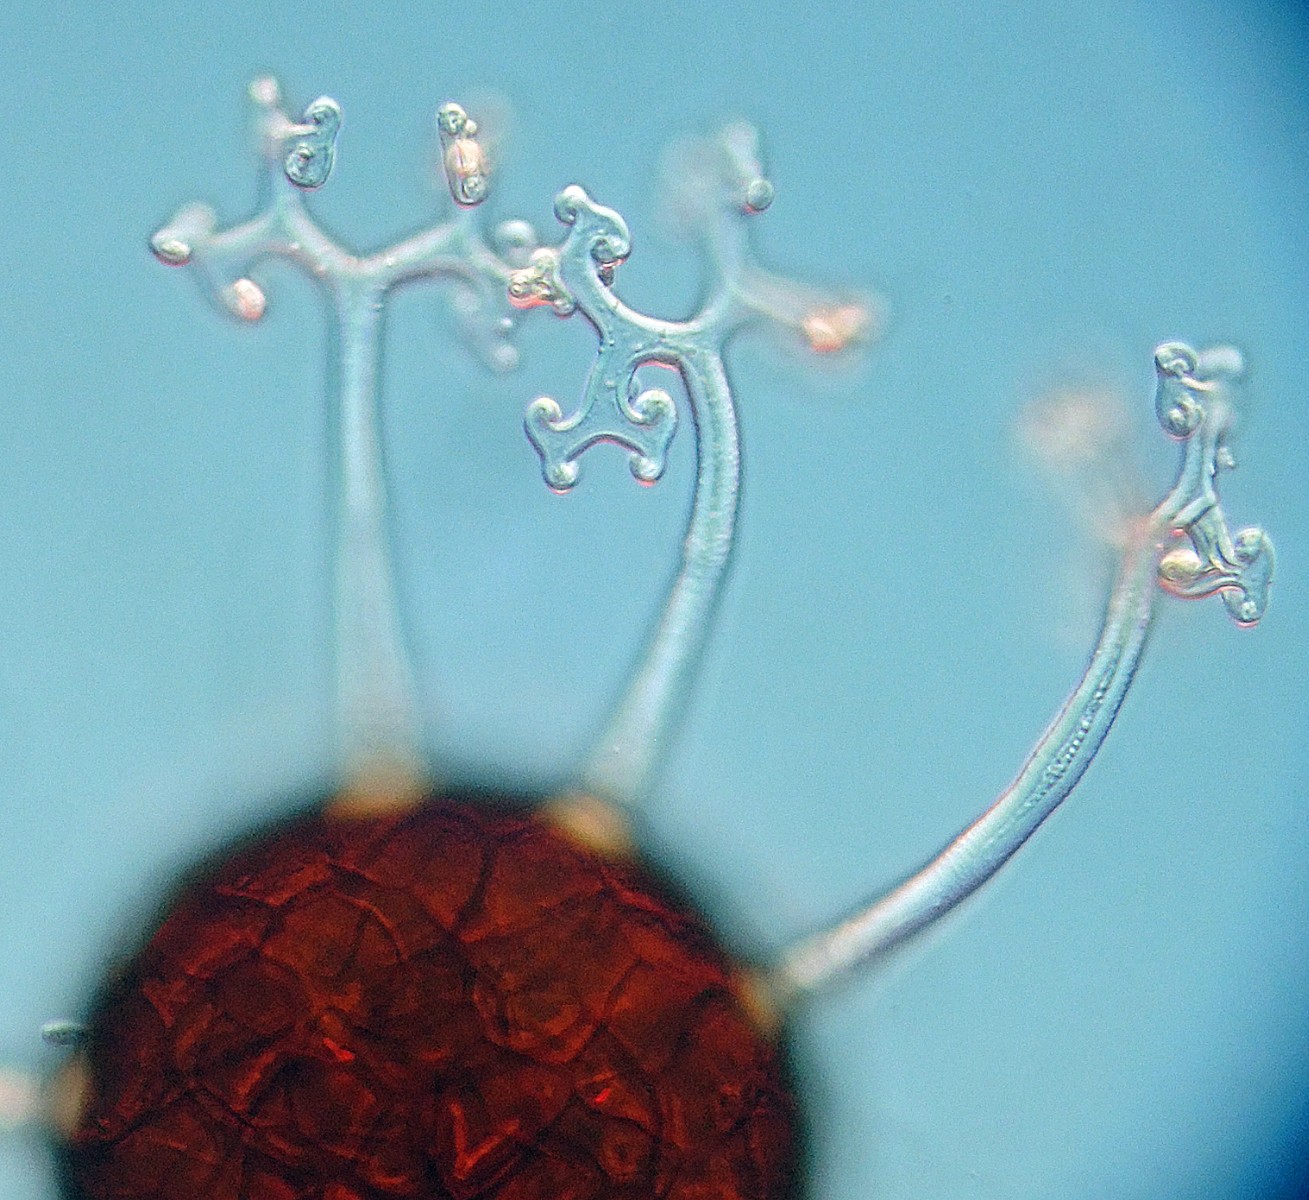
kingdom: Fungi
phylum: Ascomycota
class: Leotiomycetes
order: Helotiales
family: Erysiphaceae
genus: Erysiphe
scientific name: Erysiphe ornata
